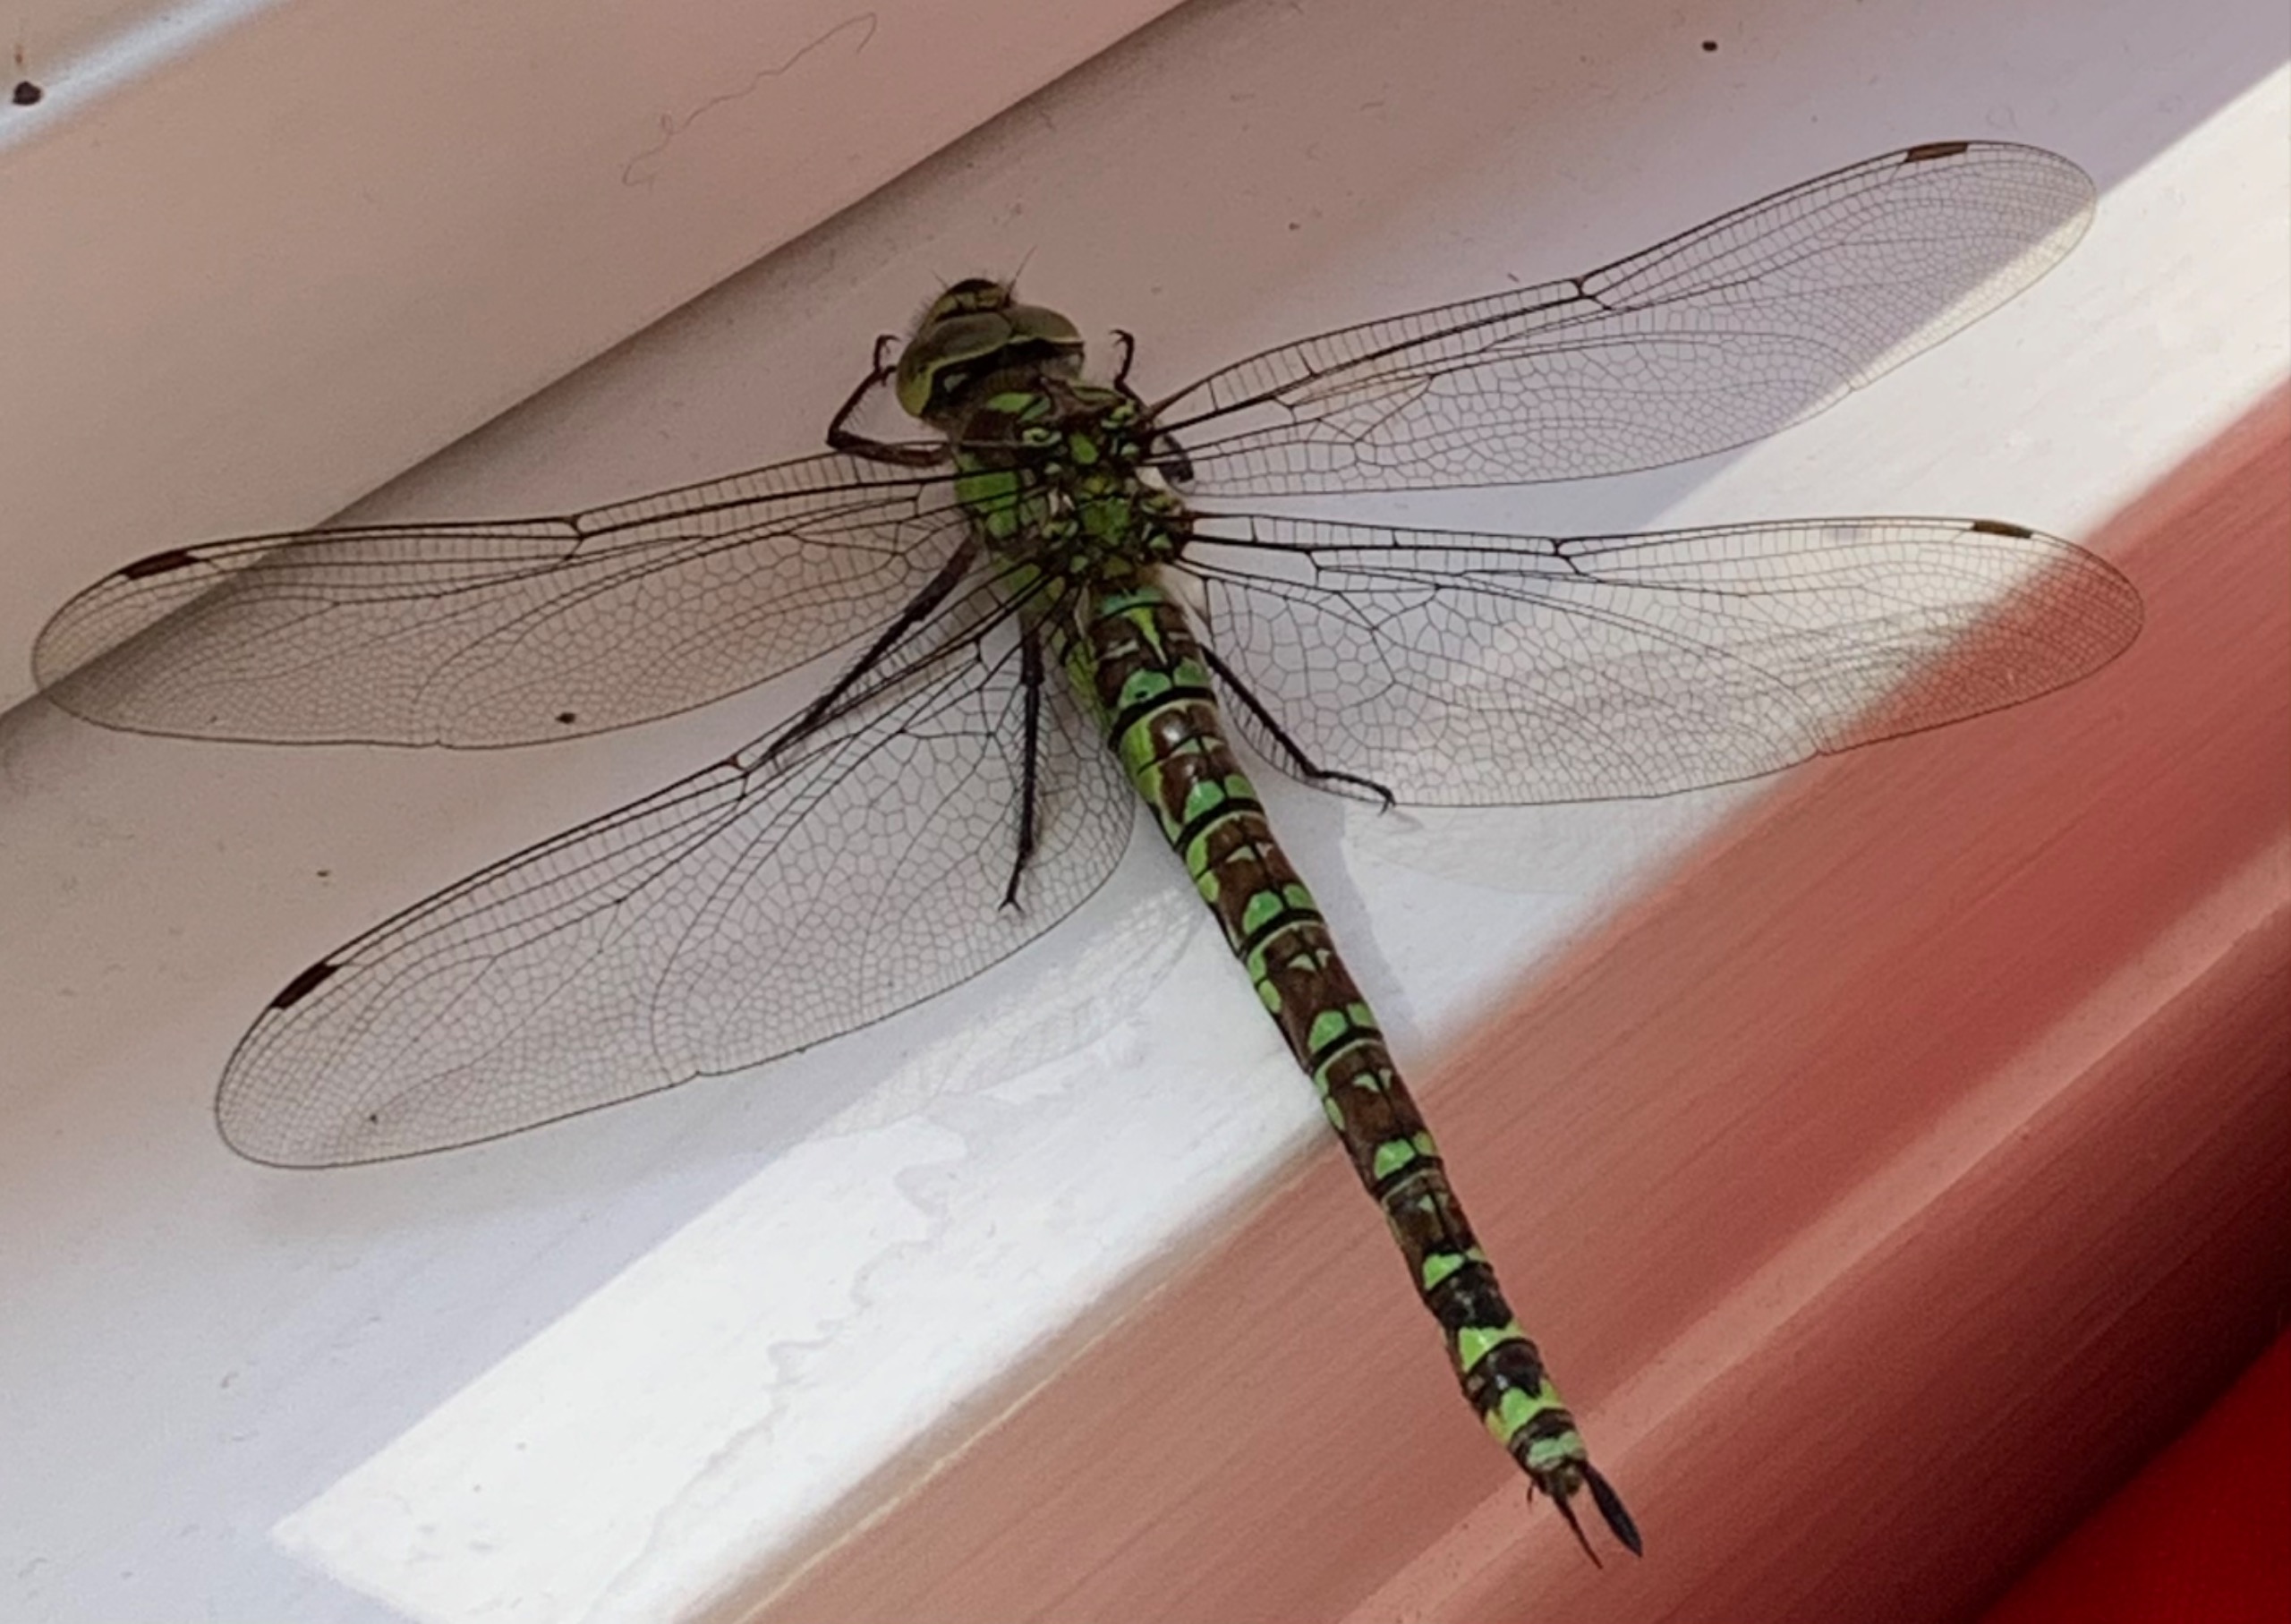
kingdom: Animalia
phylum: Arthropoda
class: Insecta
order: Odonata
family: Aeshnidae
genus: Aeshna
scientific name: Aeshna cyanea
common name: Blå mosaikguldsmed
